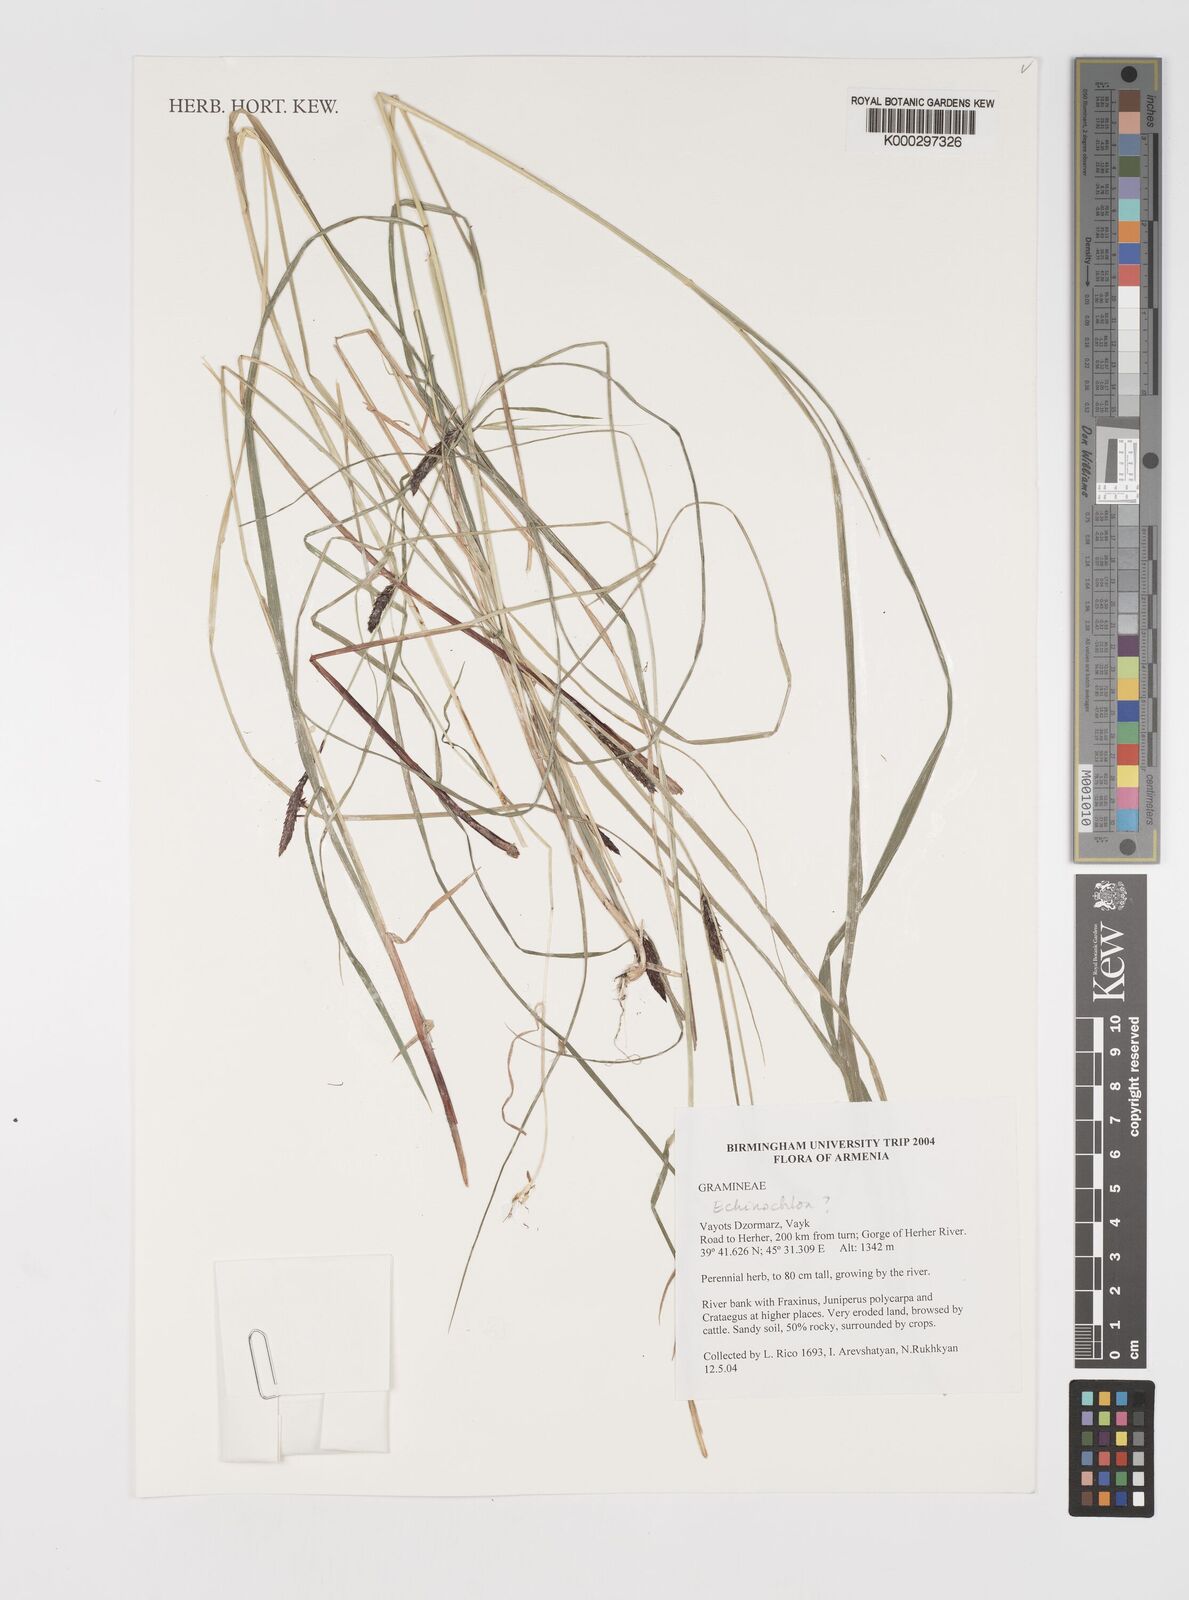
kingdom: Plantae
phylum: Tracheophyta
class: Liliopsida
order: Poales
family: Poaceae
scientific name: Poaceae
